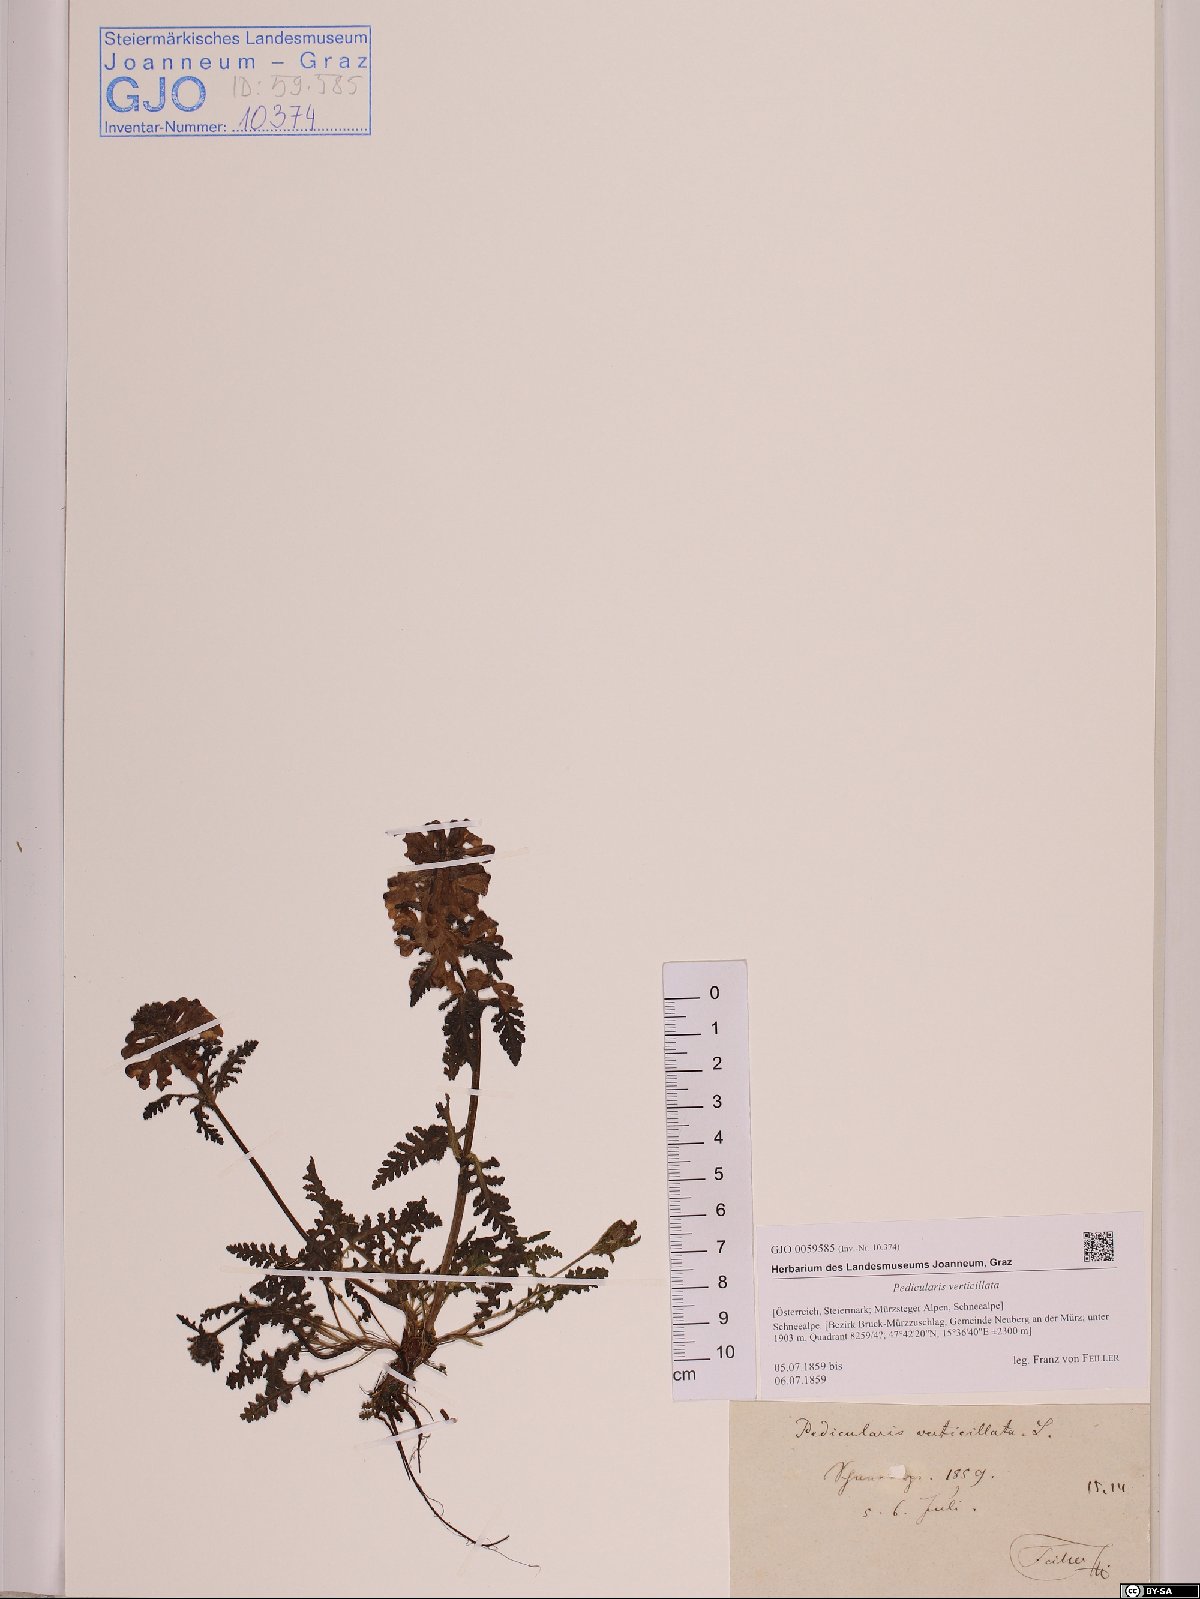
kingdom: Plantae
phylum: Tracheophyta
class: Magnoliopsida
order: Lamiales
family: Orobanchaceae
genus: Pedicularis
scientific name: Pedicularis verticillata
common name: Whorled lousewort
